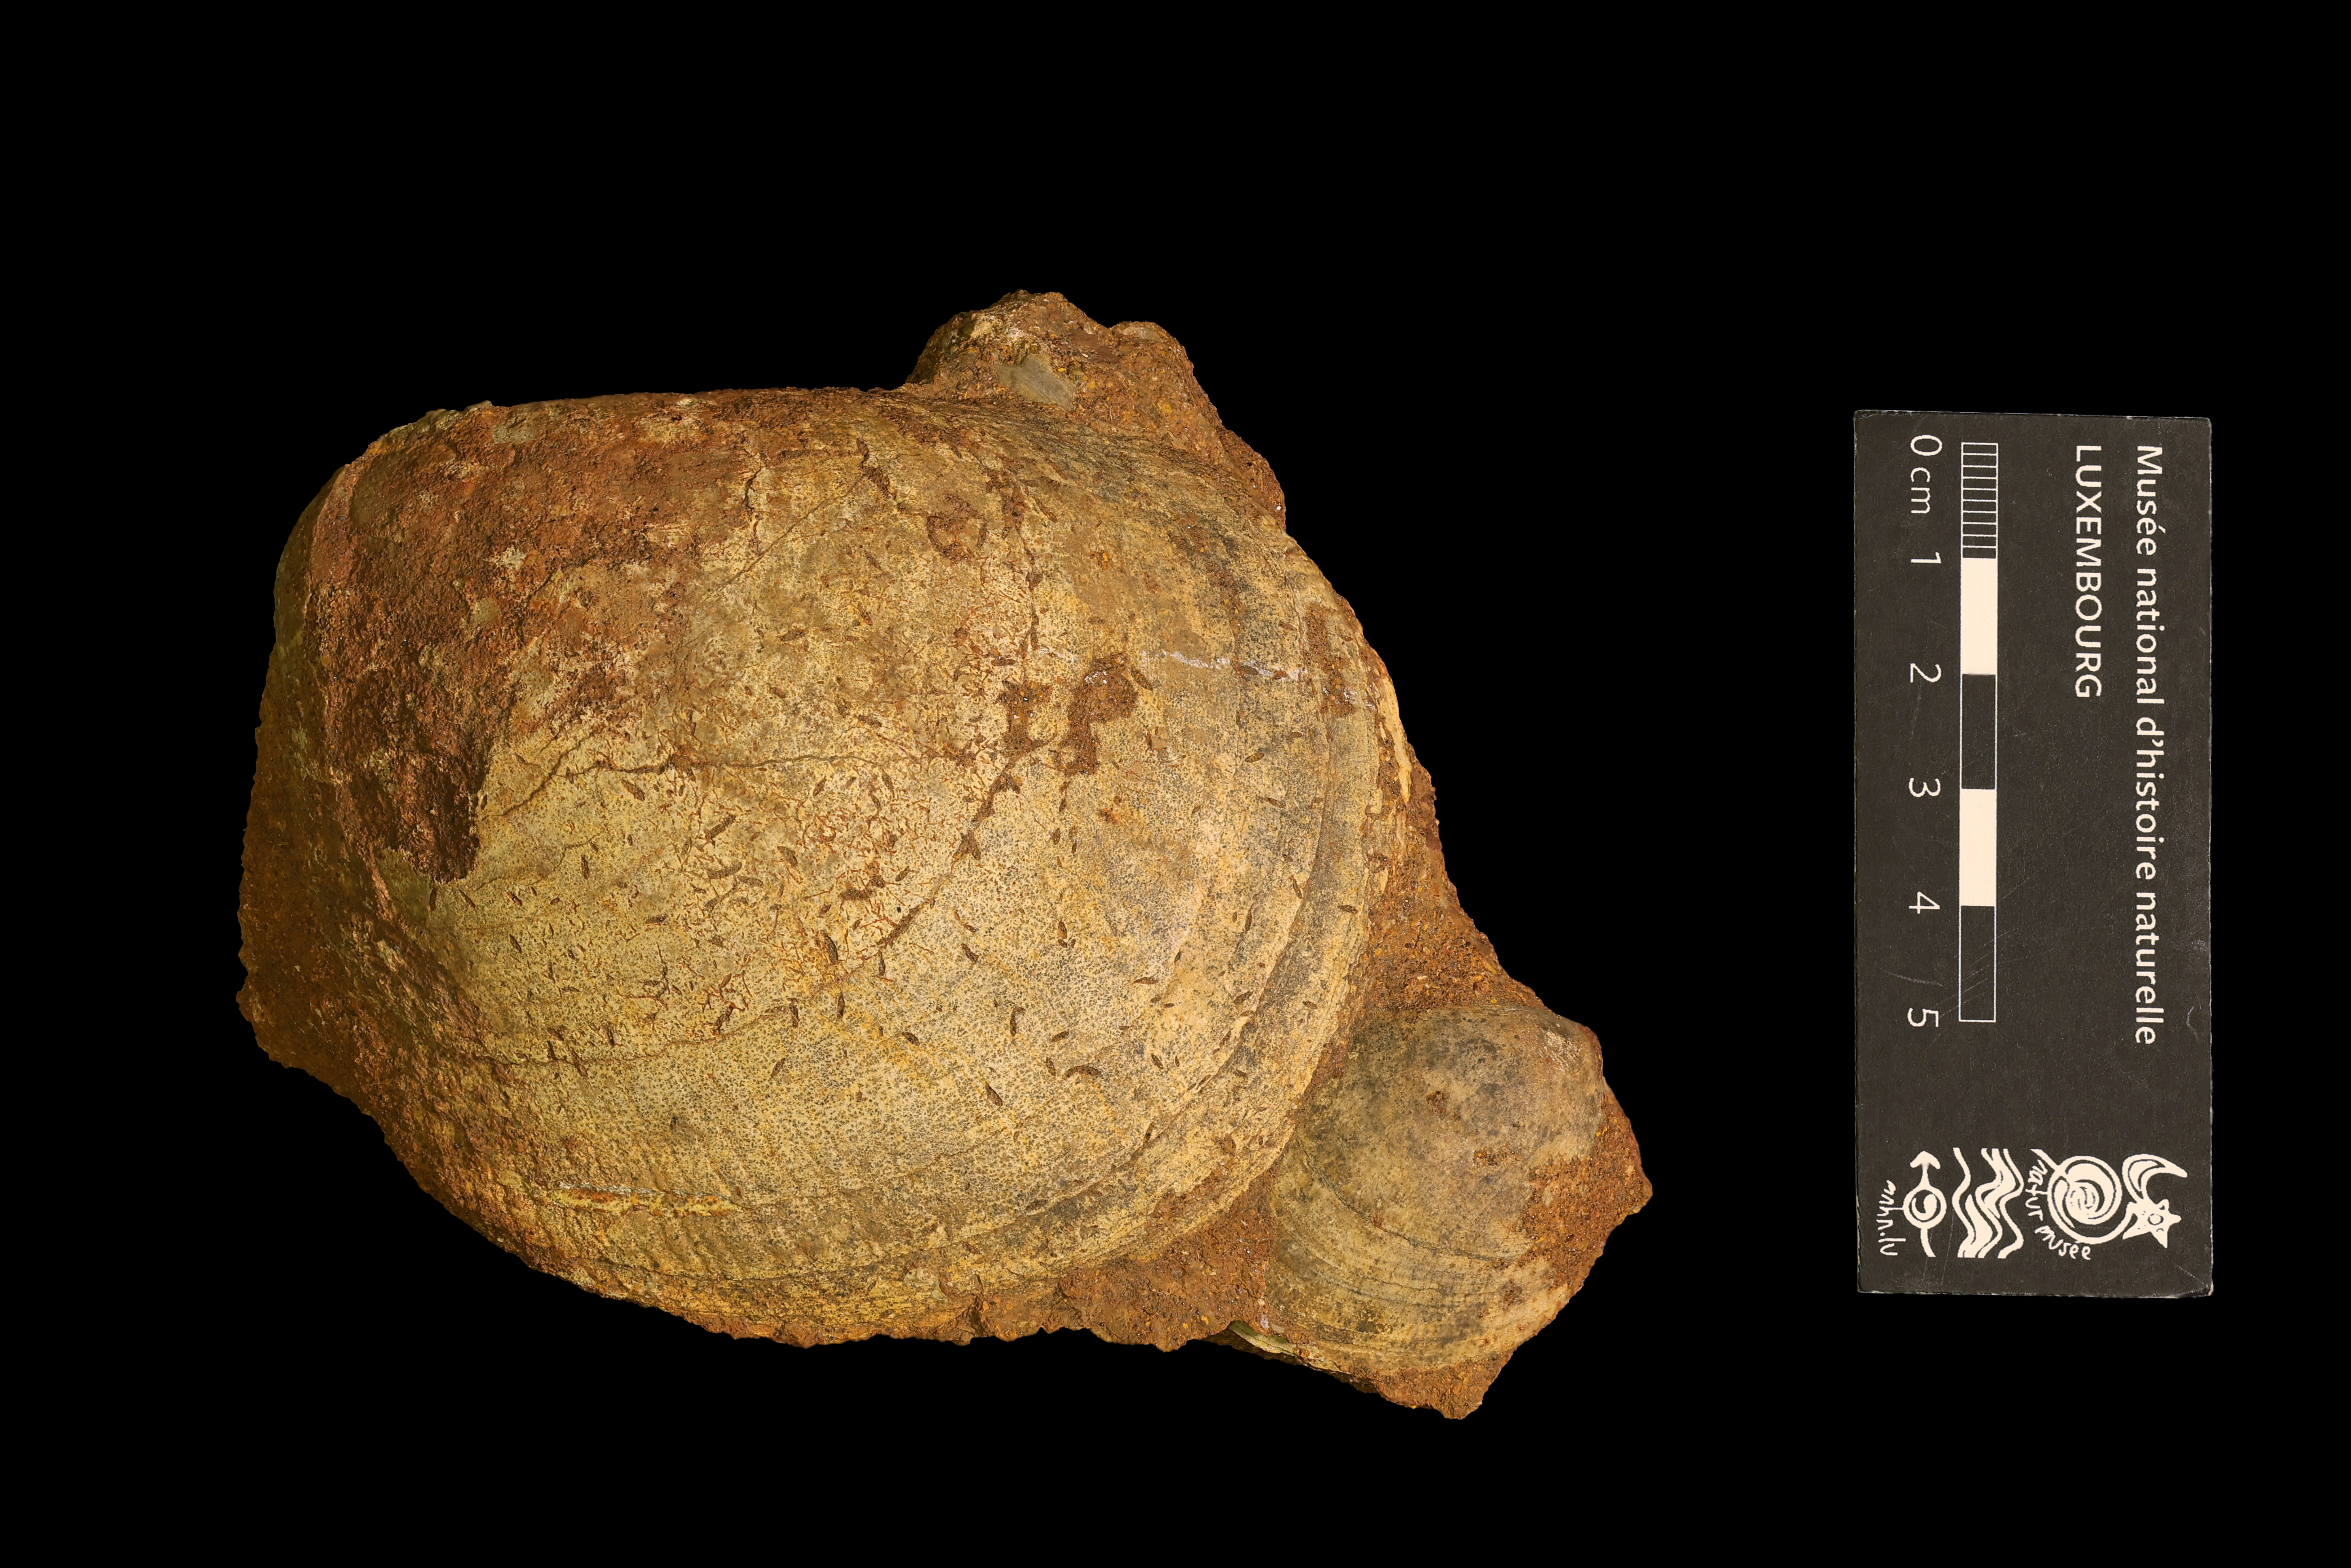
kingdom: Animalia
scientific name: Animalia
